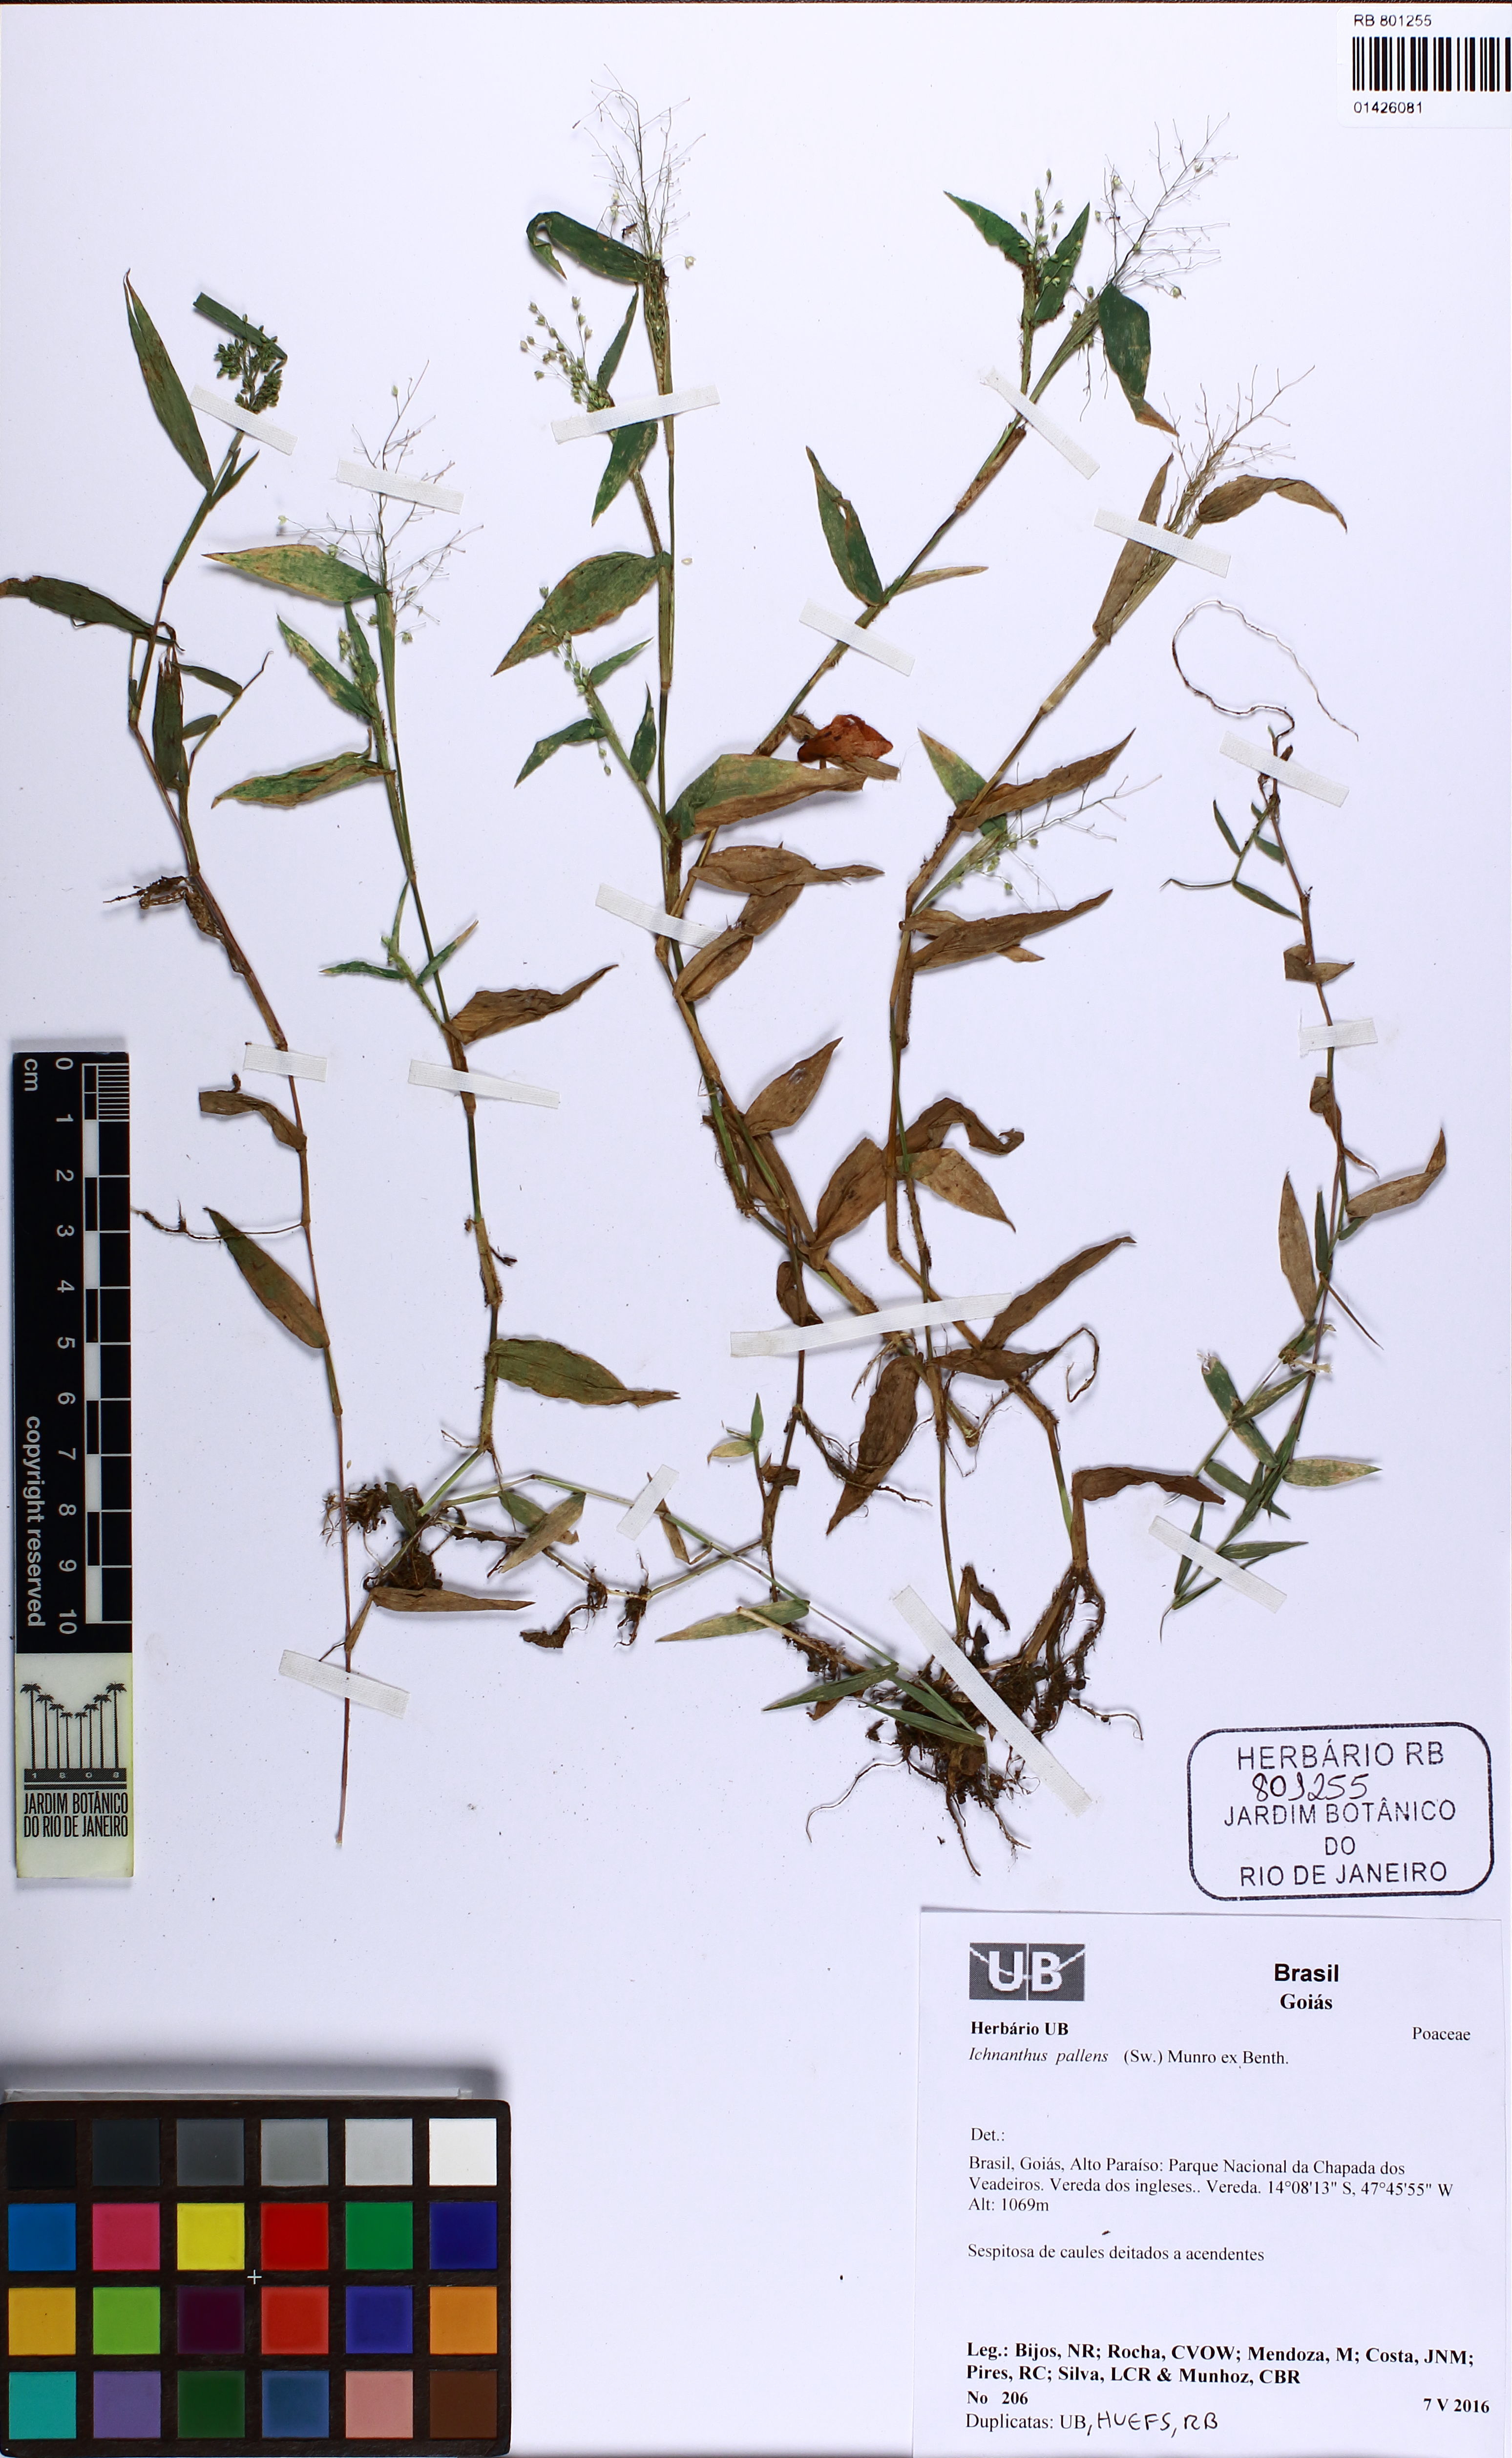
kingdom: Plantae
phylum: Tracheophyta
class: Liliopsida
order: Poales
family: Poaceae
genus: Ichnanthus
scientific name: Ichnanthus pallens
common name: Water grass
